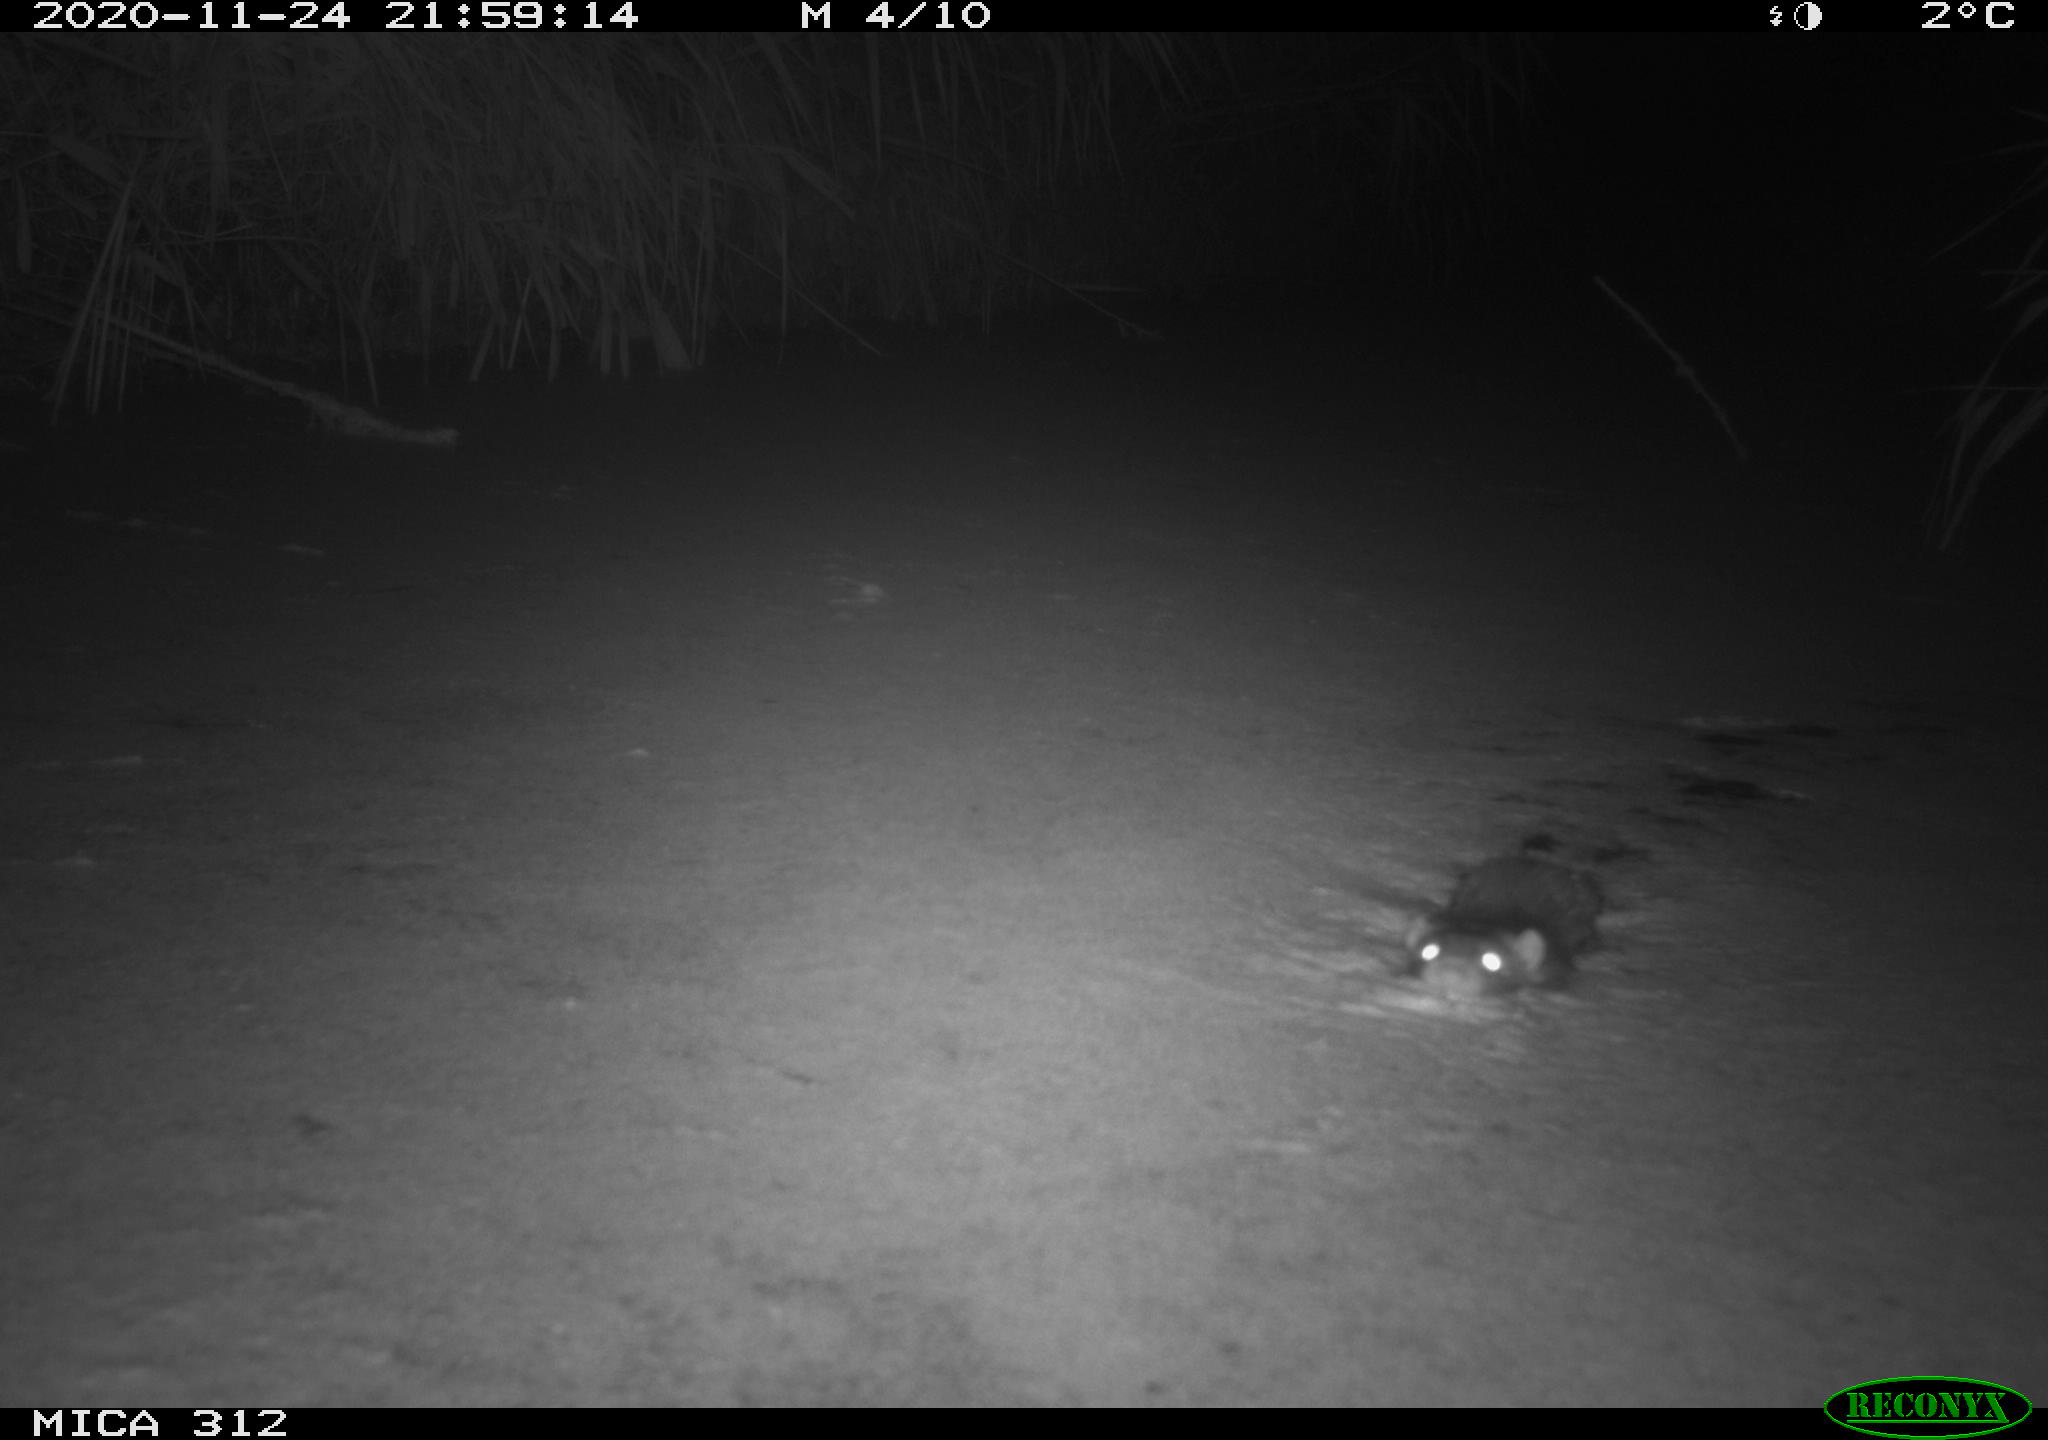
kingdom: Animalia
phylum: Chordata
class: Mammalia
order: Rodentia
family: Muridae
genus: Rattus
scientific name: Rattus norvegicus
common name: Brown rat
